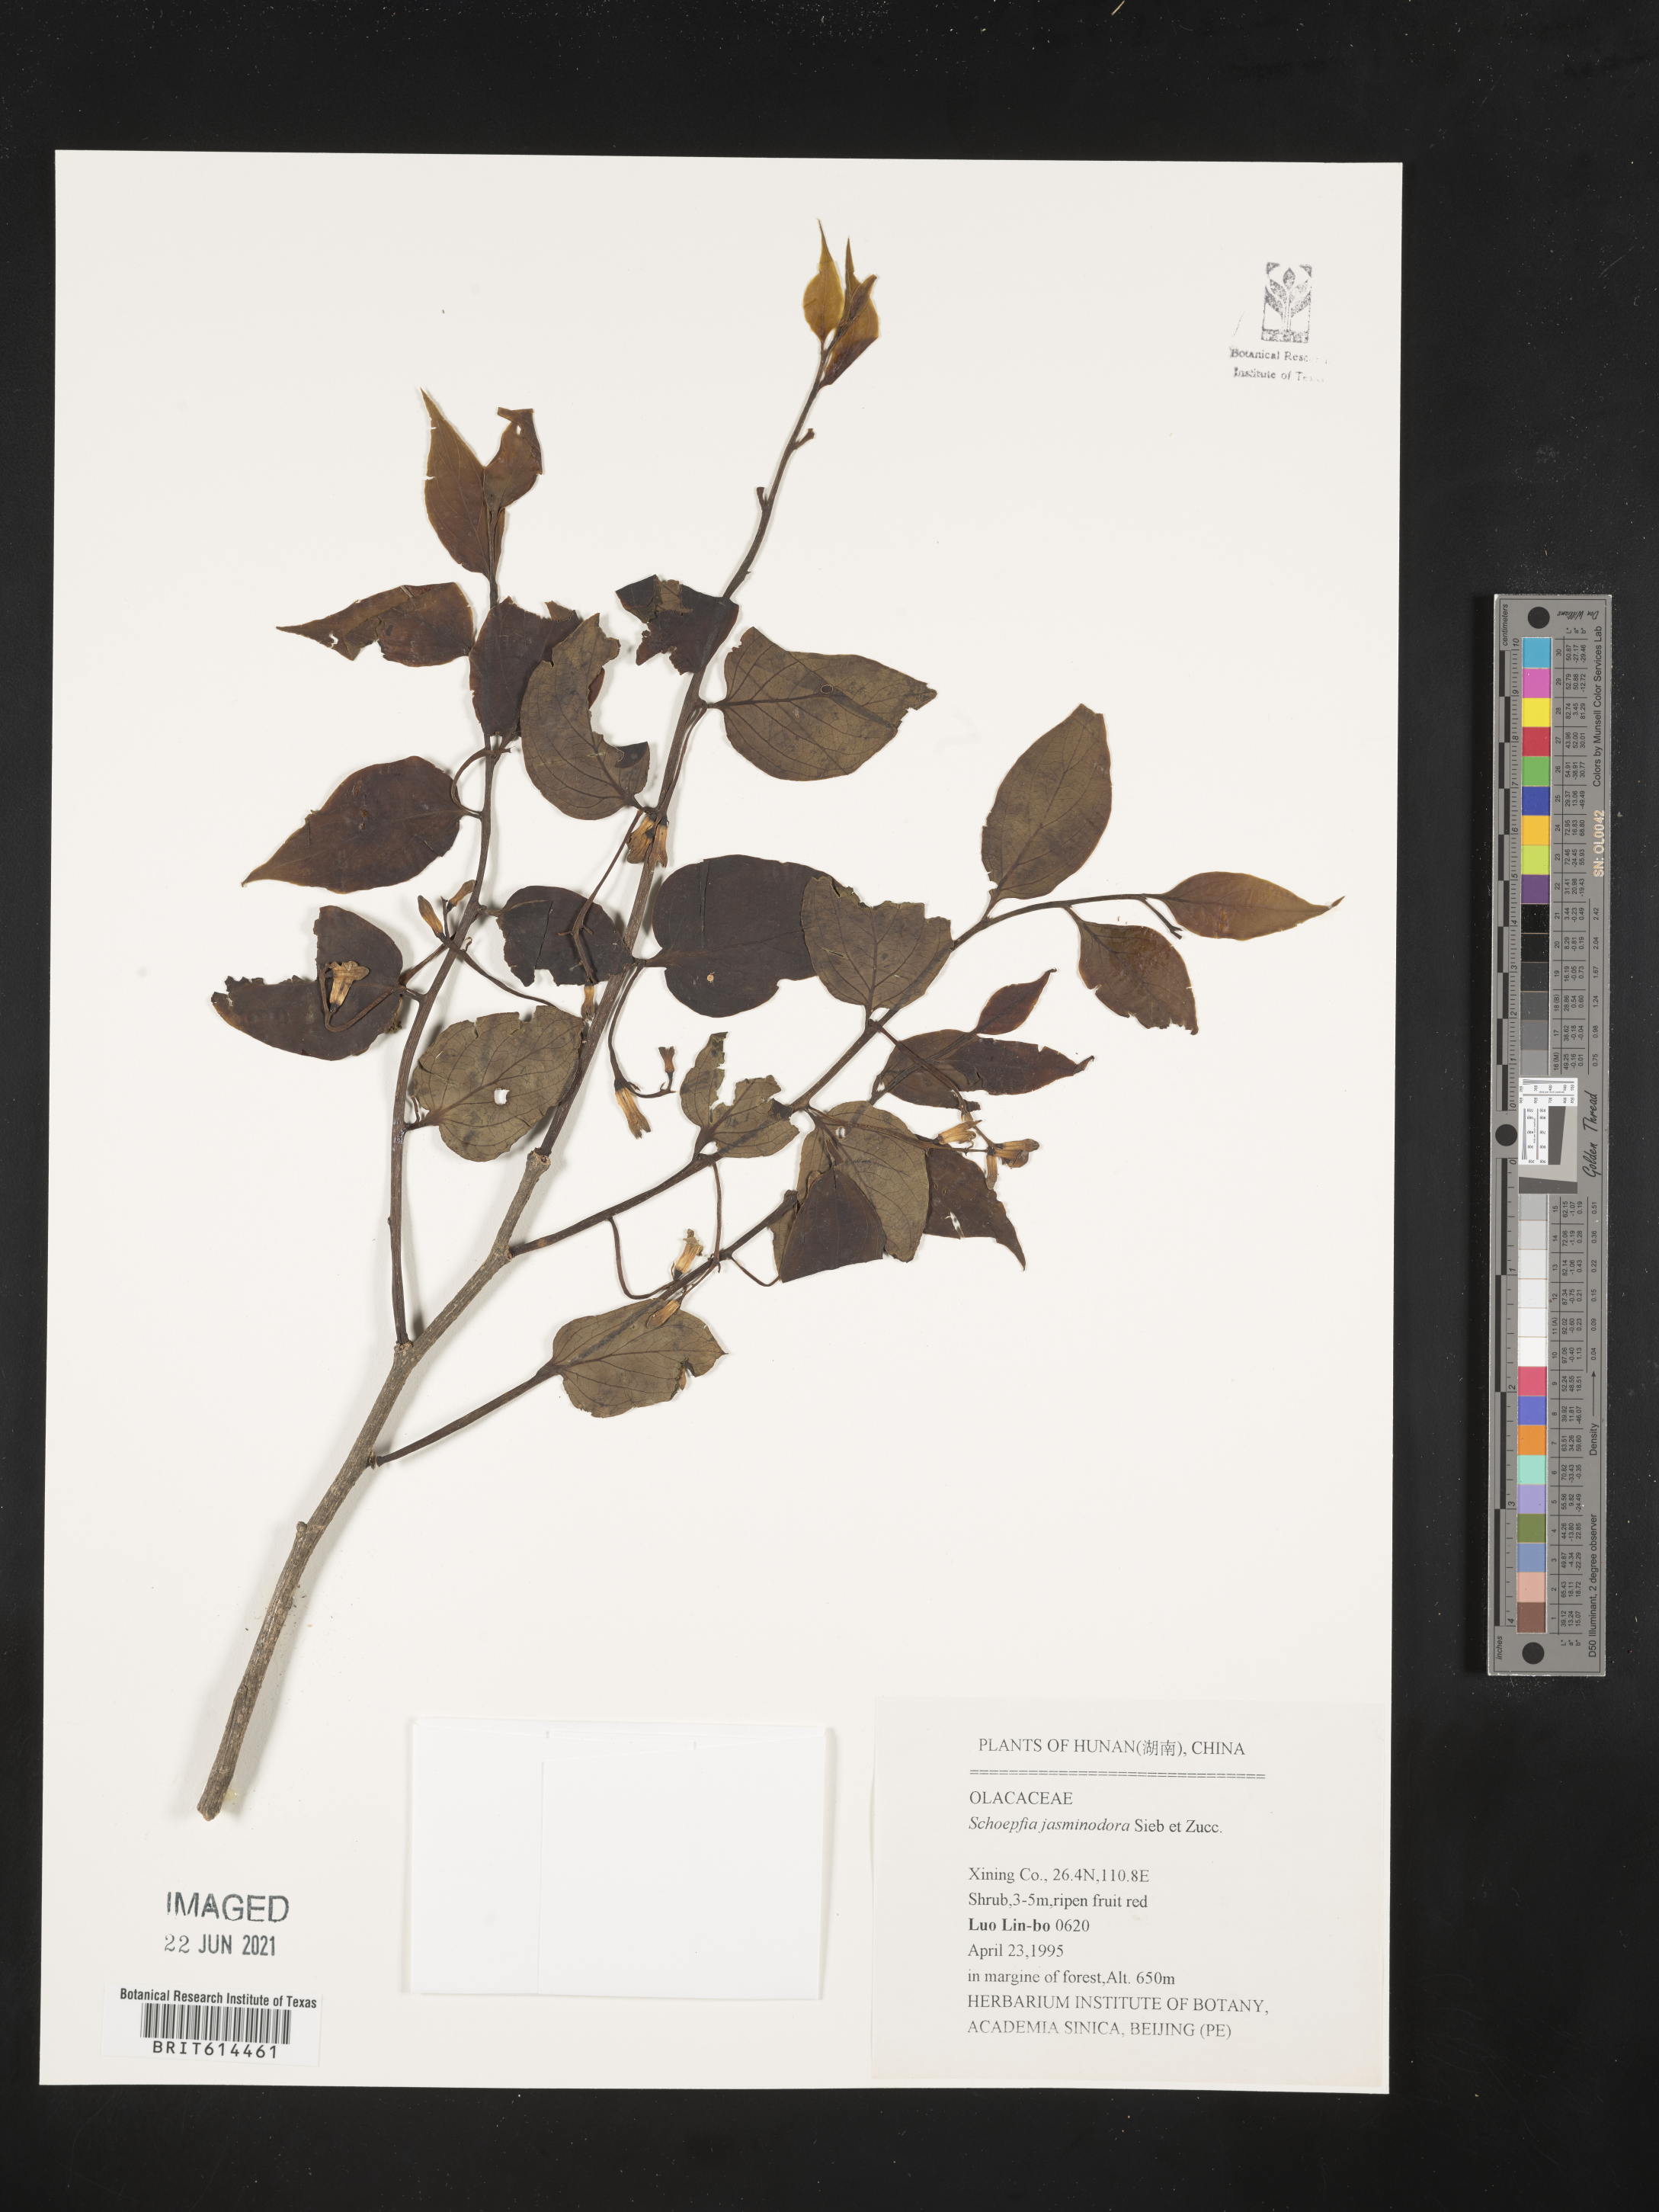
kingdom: Plantae
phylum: Tracheophyta
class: Magnoliopsida
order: Santalales
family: Schoepfiaceae
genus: Schoepfia
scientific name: Schoepfia jasminodora
